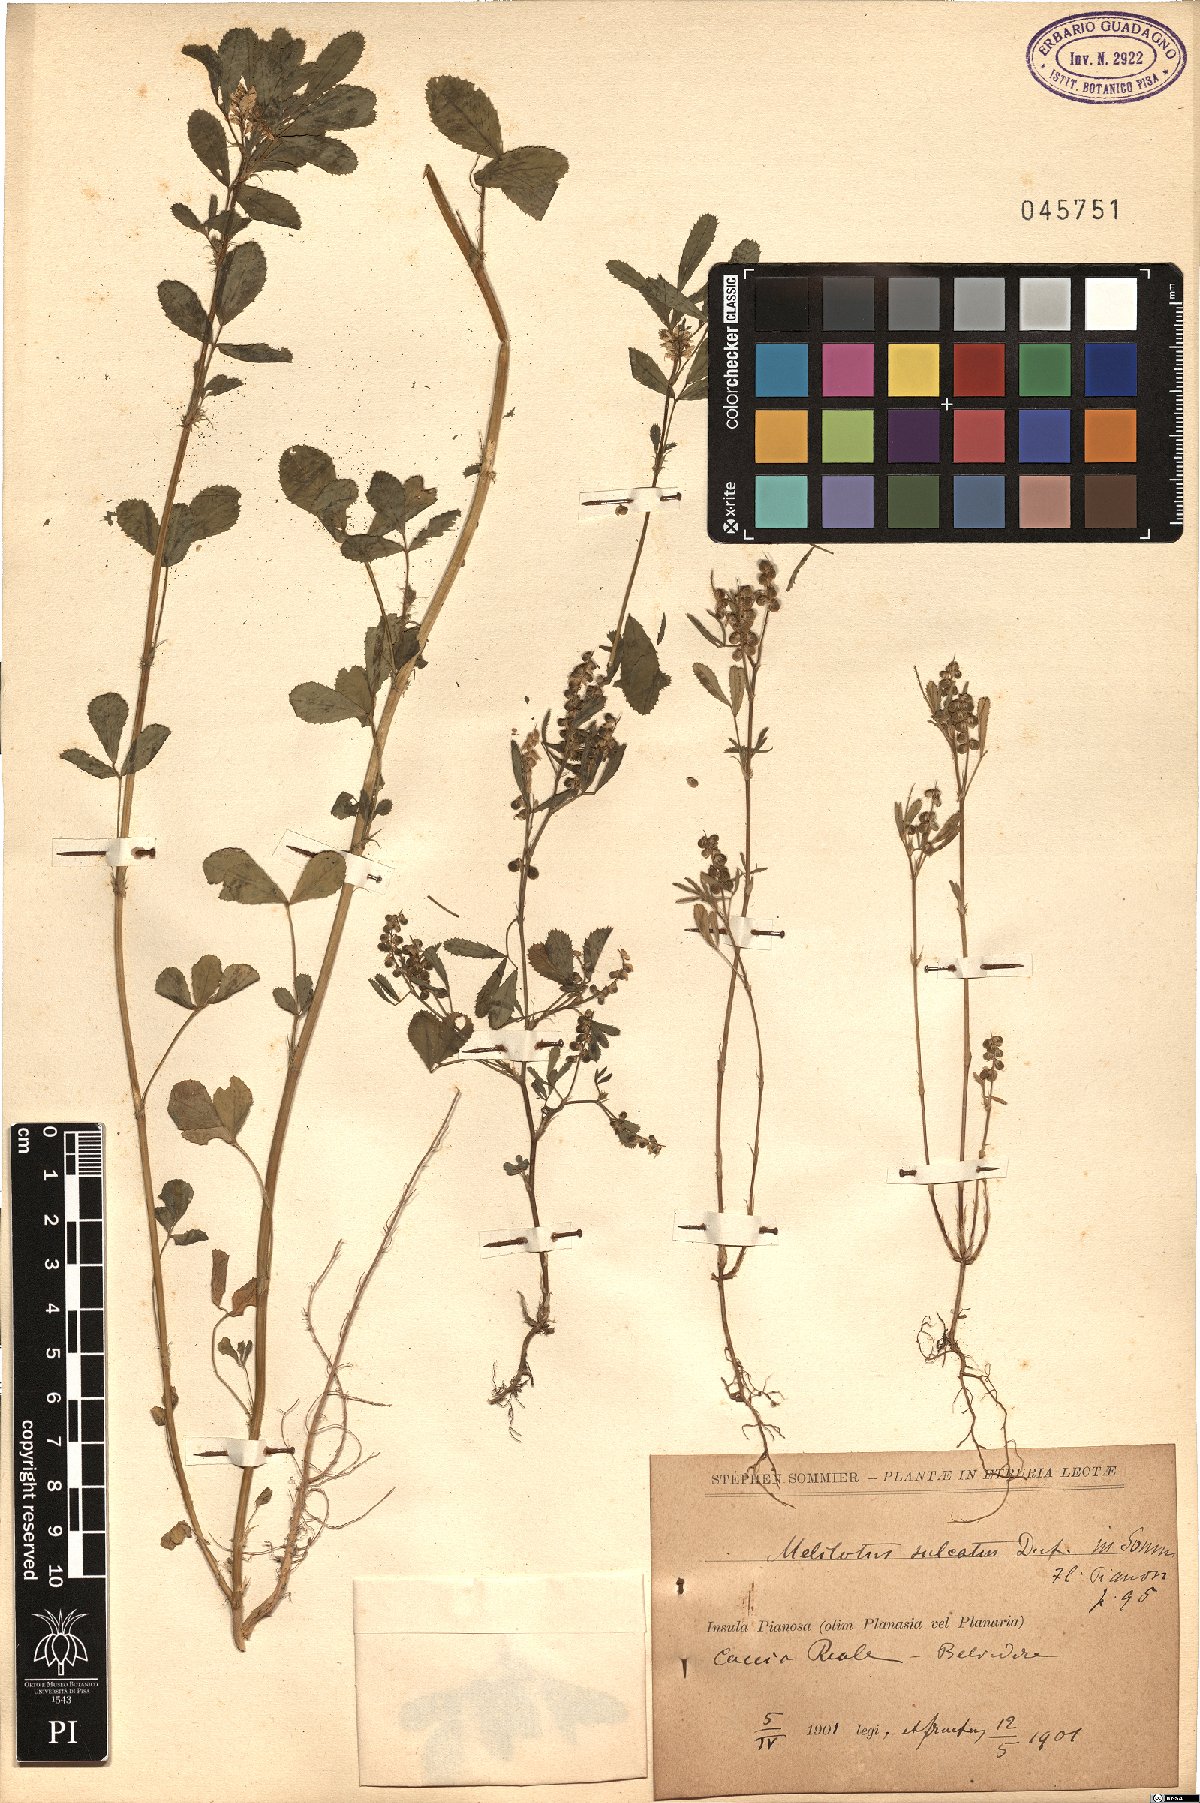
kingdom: Plantae
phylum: Tracheophyta
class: Magnoliopsida
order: Fabales
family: Fabaceae
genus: Melilotus
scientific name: Melilotus sulcatus
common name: Furrowed melilot
